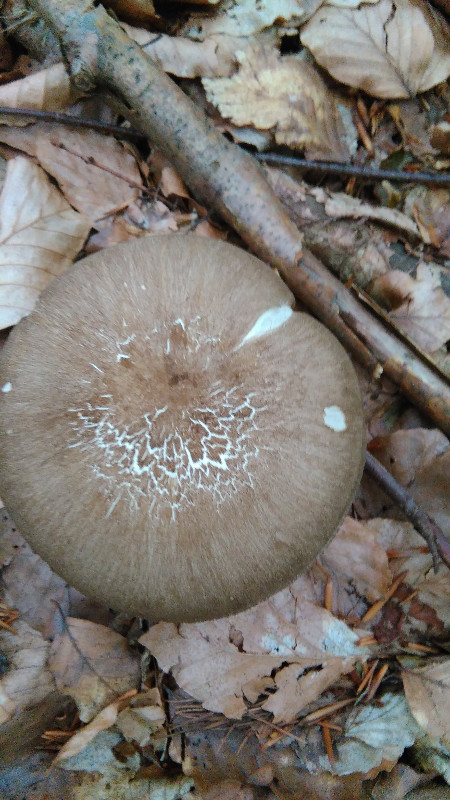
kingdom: Fungi
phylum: Basidiomycota
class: Agaricomycetes
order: Agaricales
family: Tricholomataceae
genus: Megacollybia
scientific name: Megacollybia platyphylla
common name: bredbladet væbnerhat
